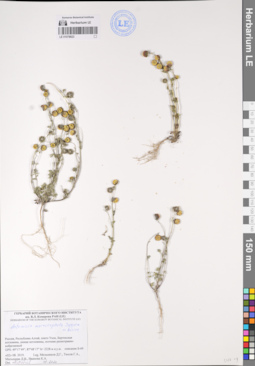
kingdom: Plantae
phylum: Tracheophyta
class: Magnoliopsida
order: Asterales
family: Asteraceae
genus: Artemisia
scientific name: Artemisia macrocephala
